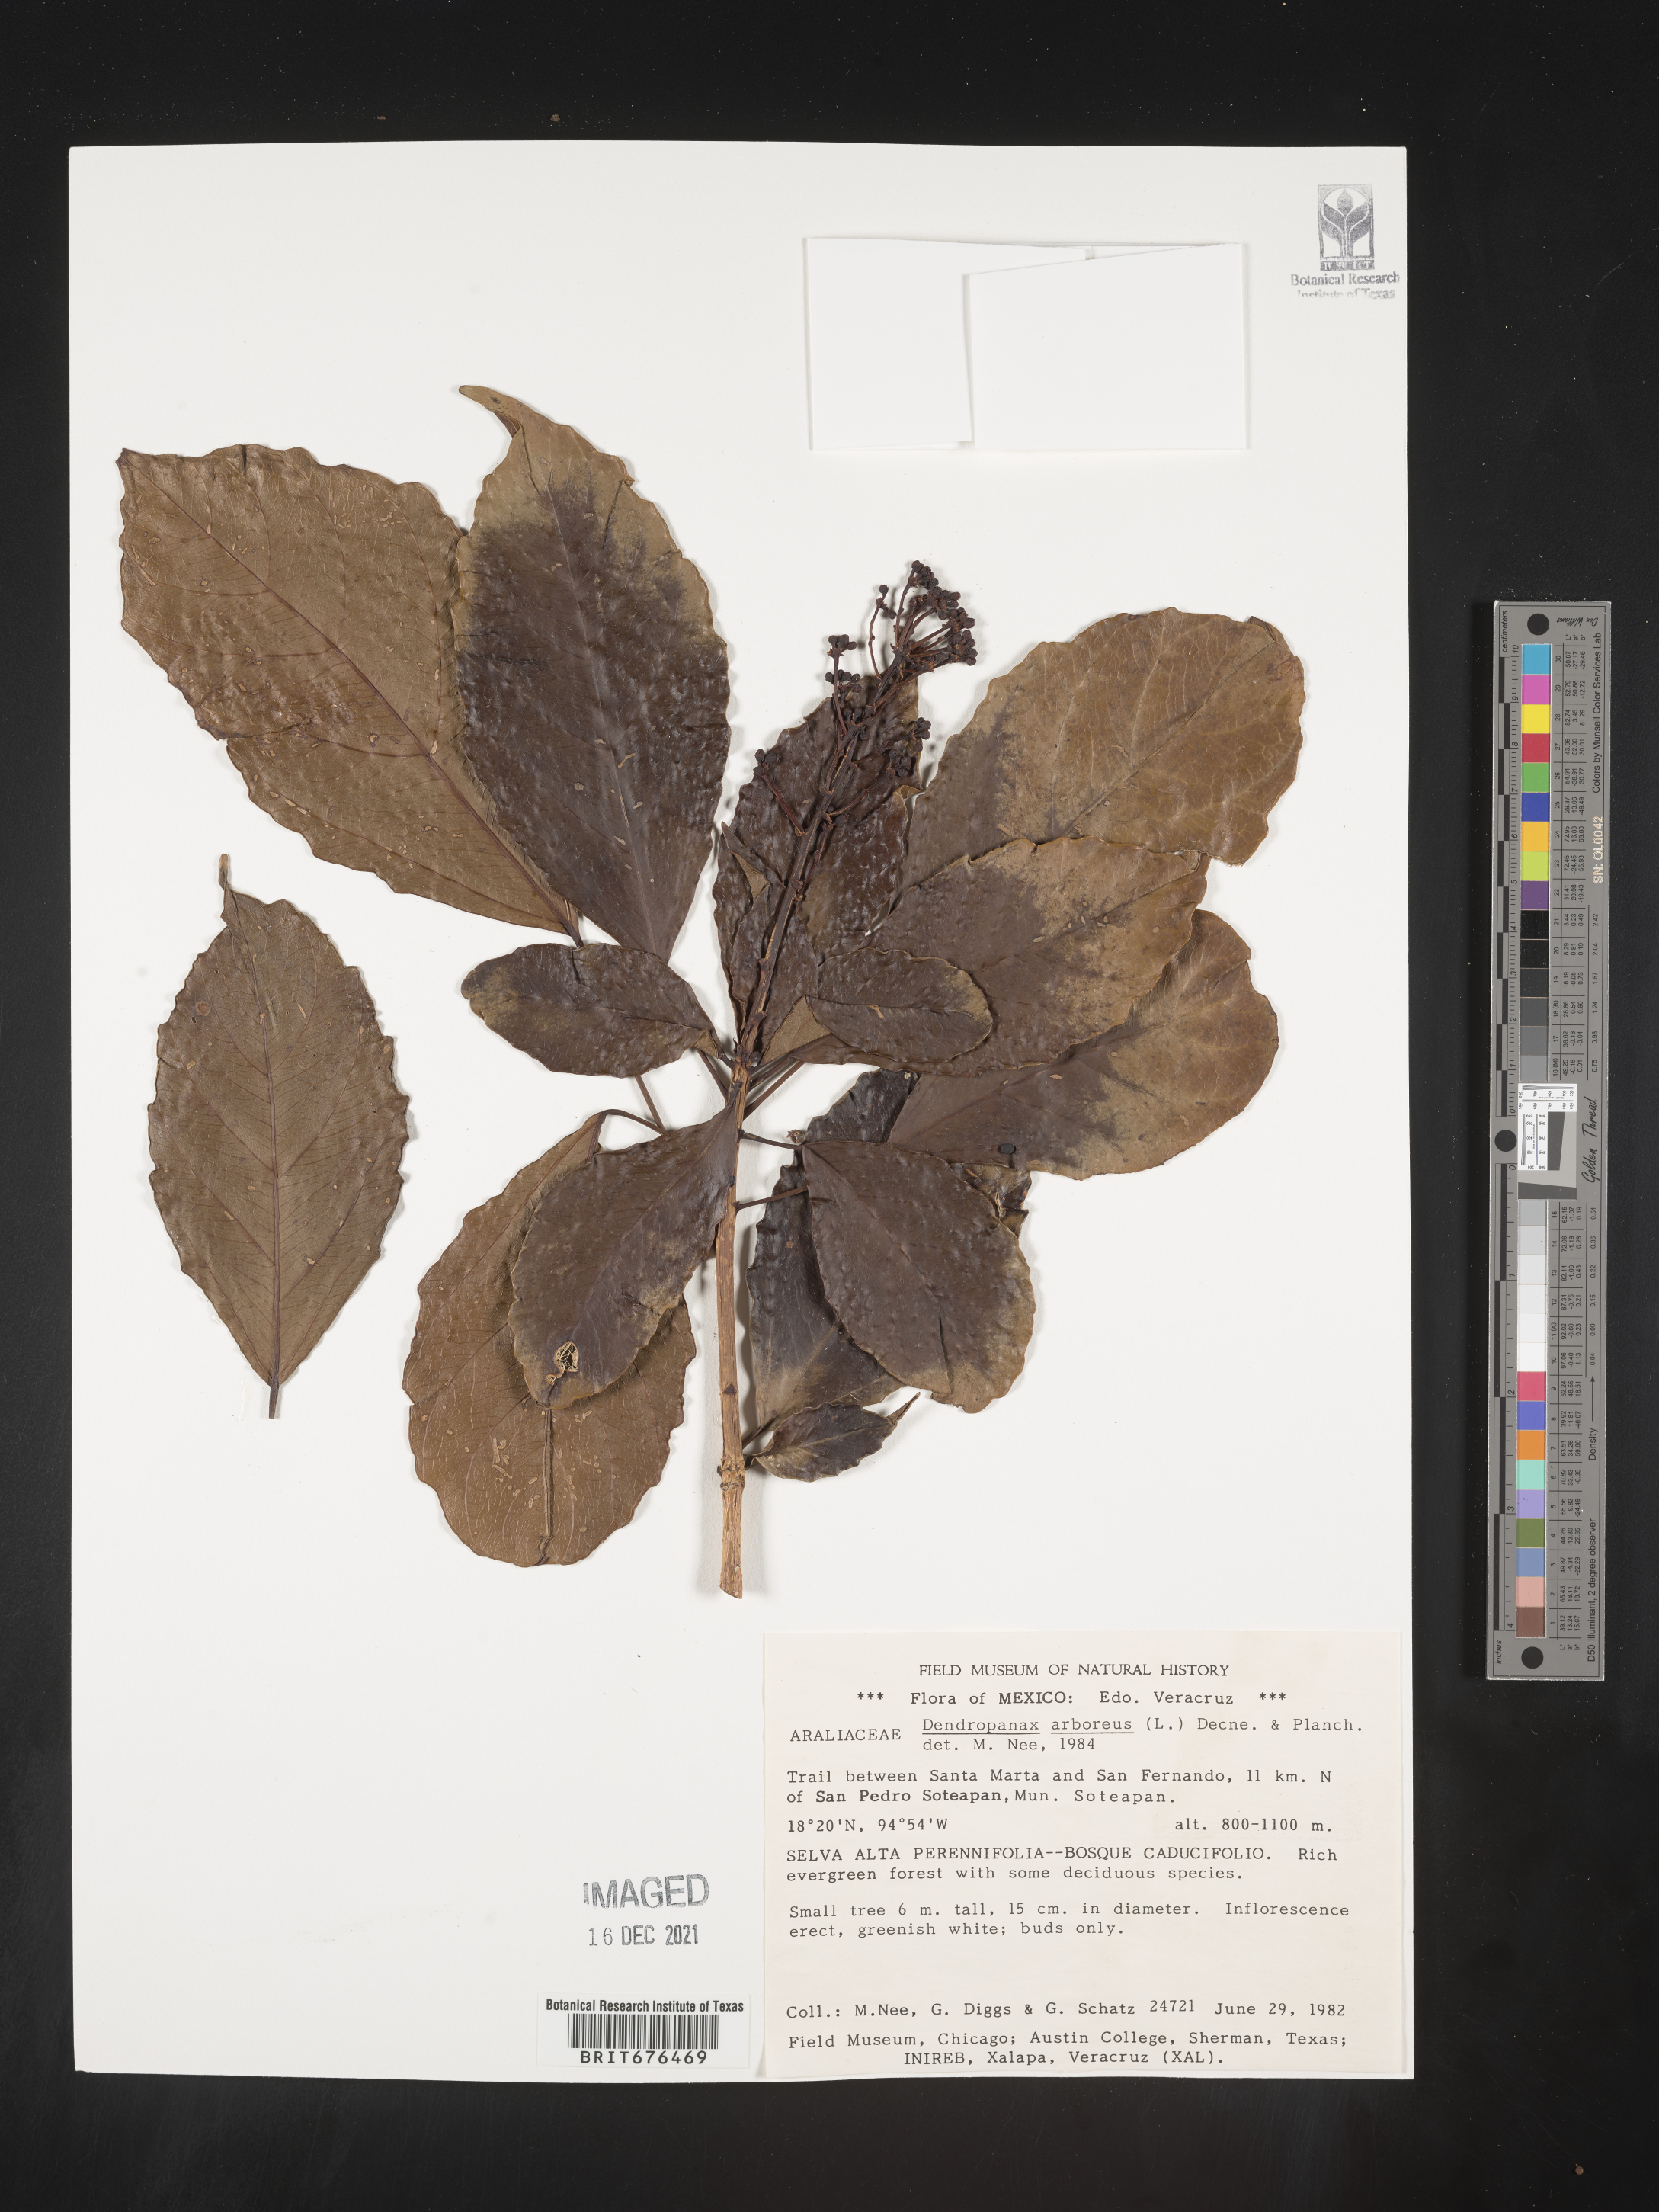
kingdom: Plantae
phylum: Tracheophyta
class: Magnoliopsida
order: Apiales
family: Araliaceae
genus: Dendropanax
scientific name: Dendropanax
